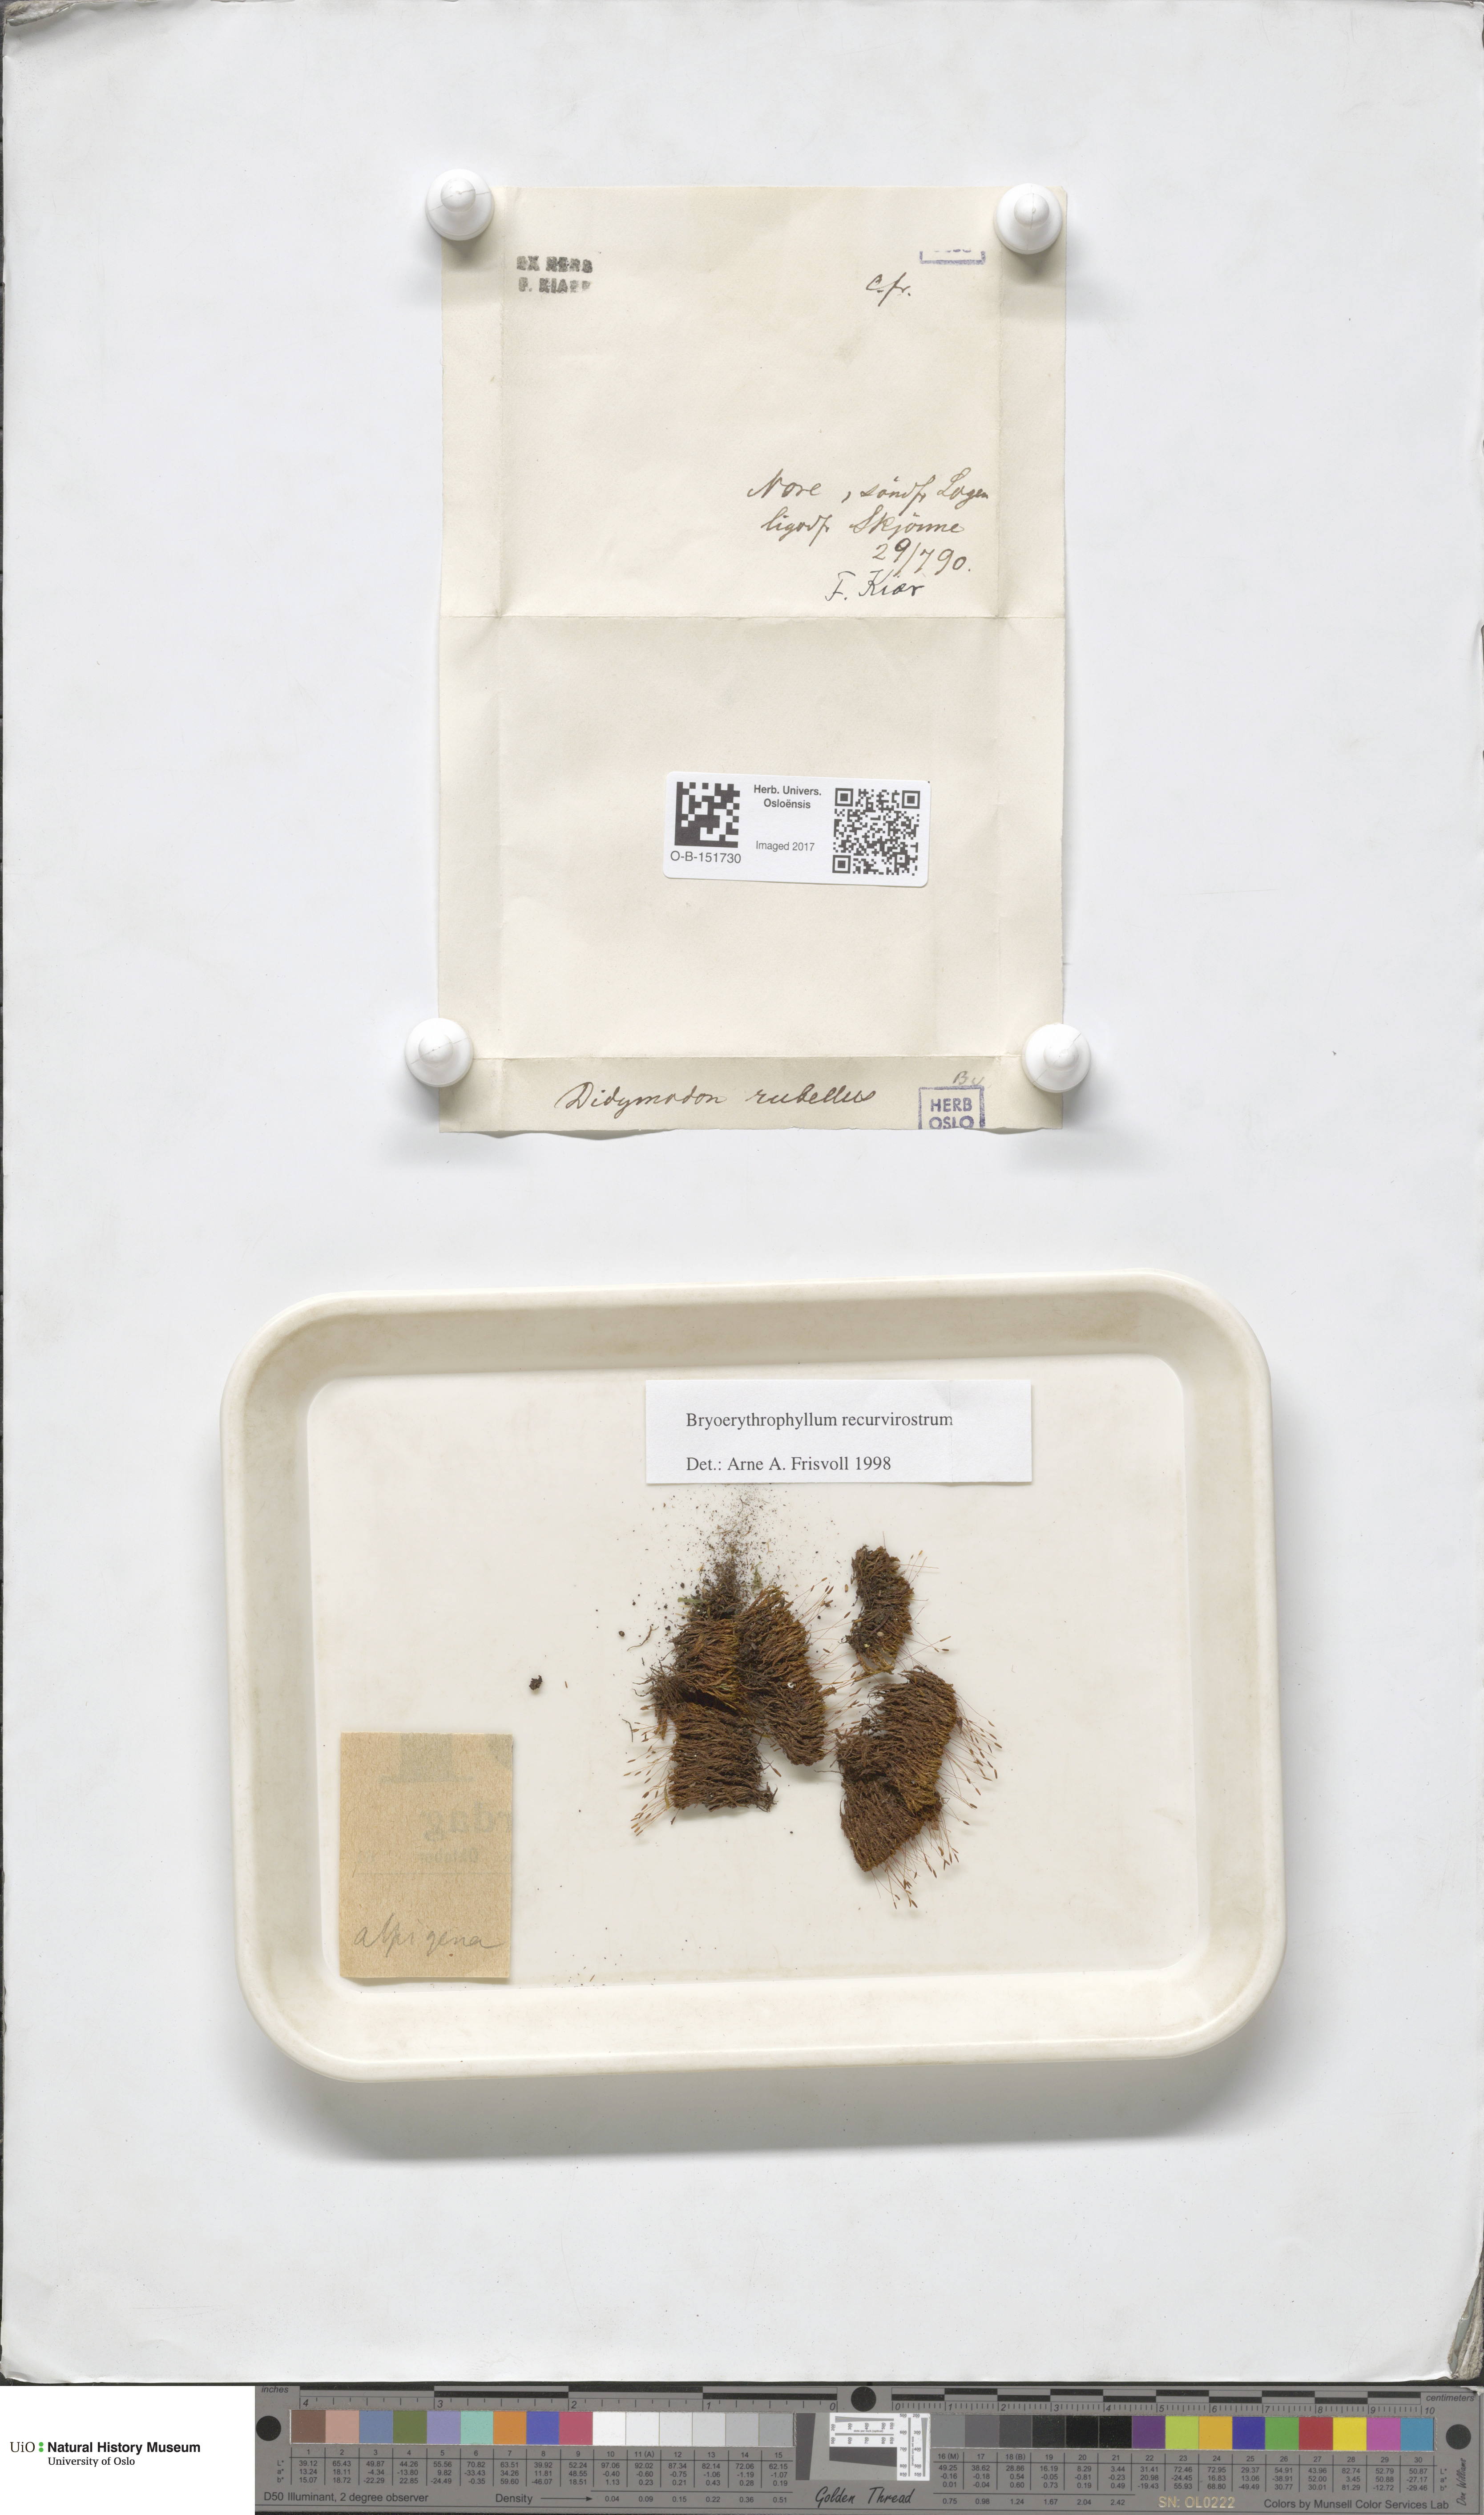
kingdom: Plantae
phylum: Bryophyta
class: Bryopsida
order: Pottiales
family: Pottiaceae
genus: Bryoerythrophyllum
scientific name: Bryoerythrophyllum recurvirostrum
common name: Red beard moss
